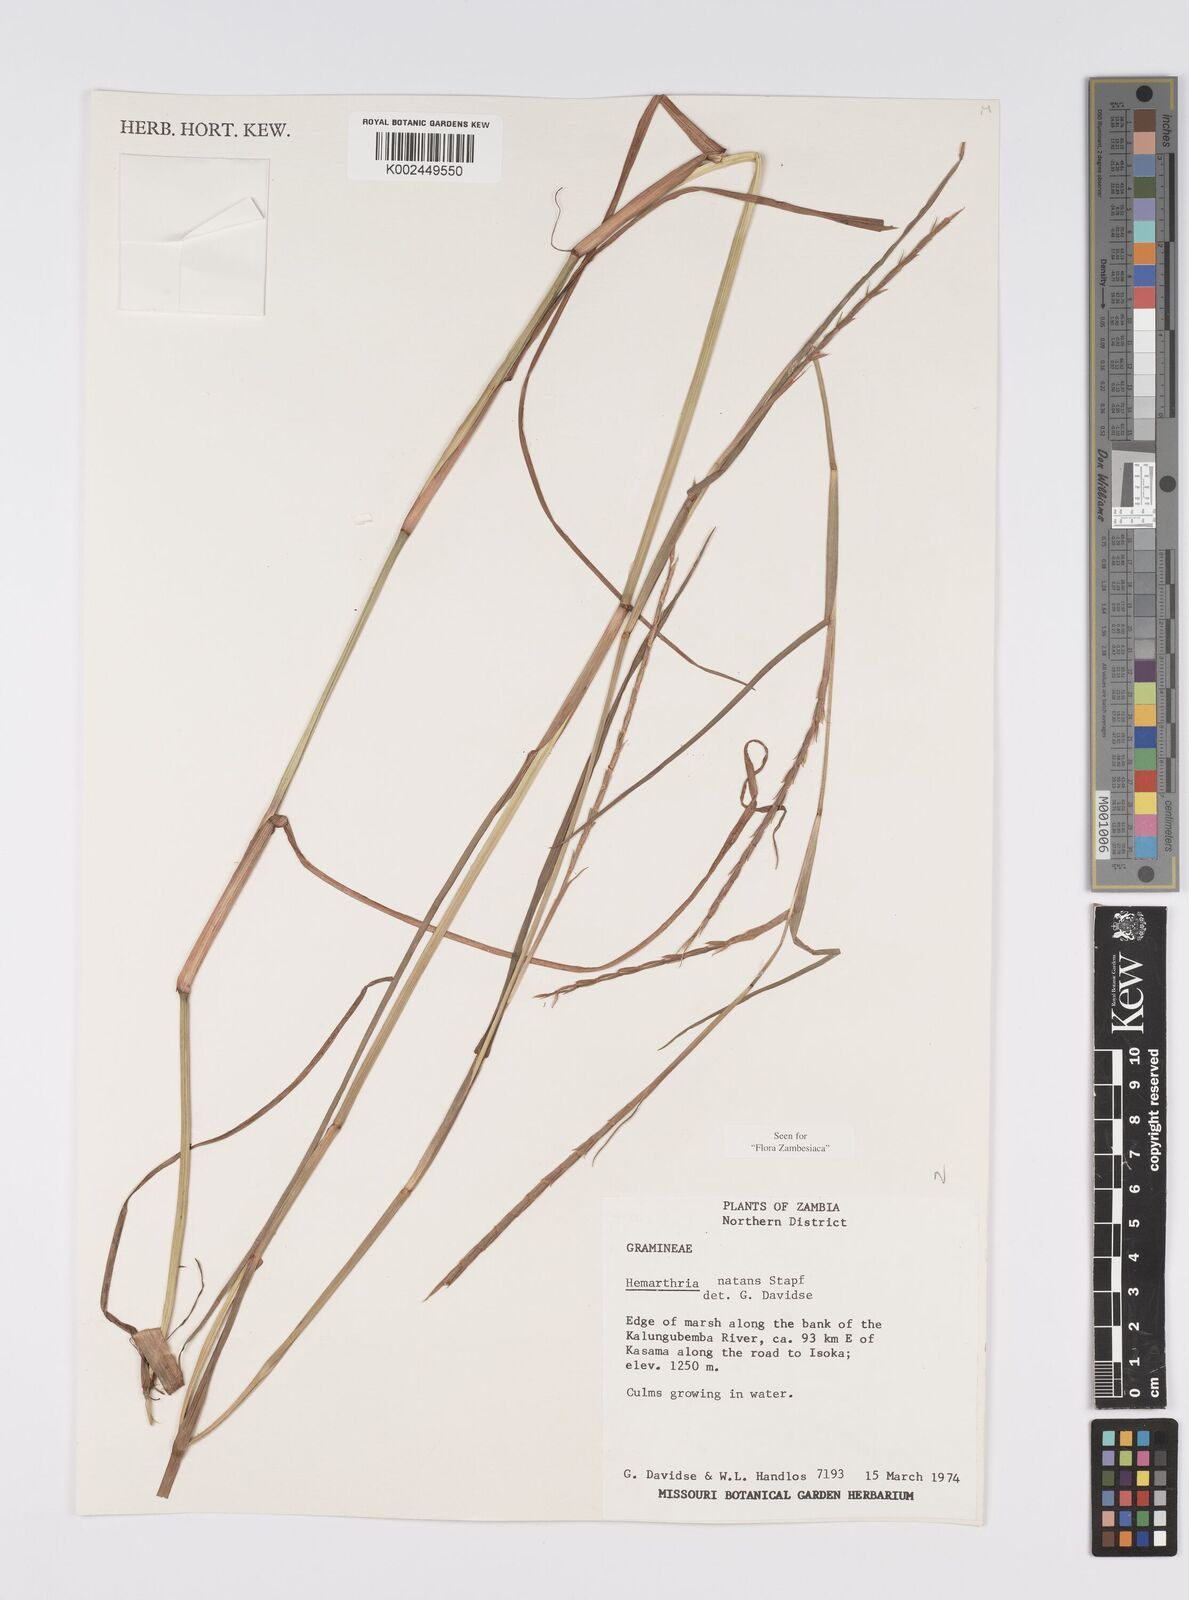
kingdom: Plantae
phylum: Tracheophyta
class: Liliopsida
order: Poales
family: Poaceae
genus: Hemarthria
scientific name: Hemarthria altissima
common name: African jointgrass
